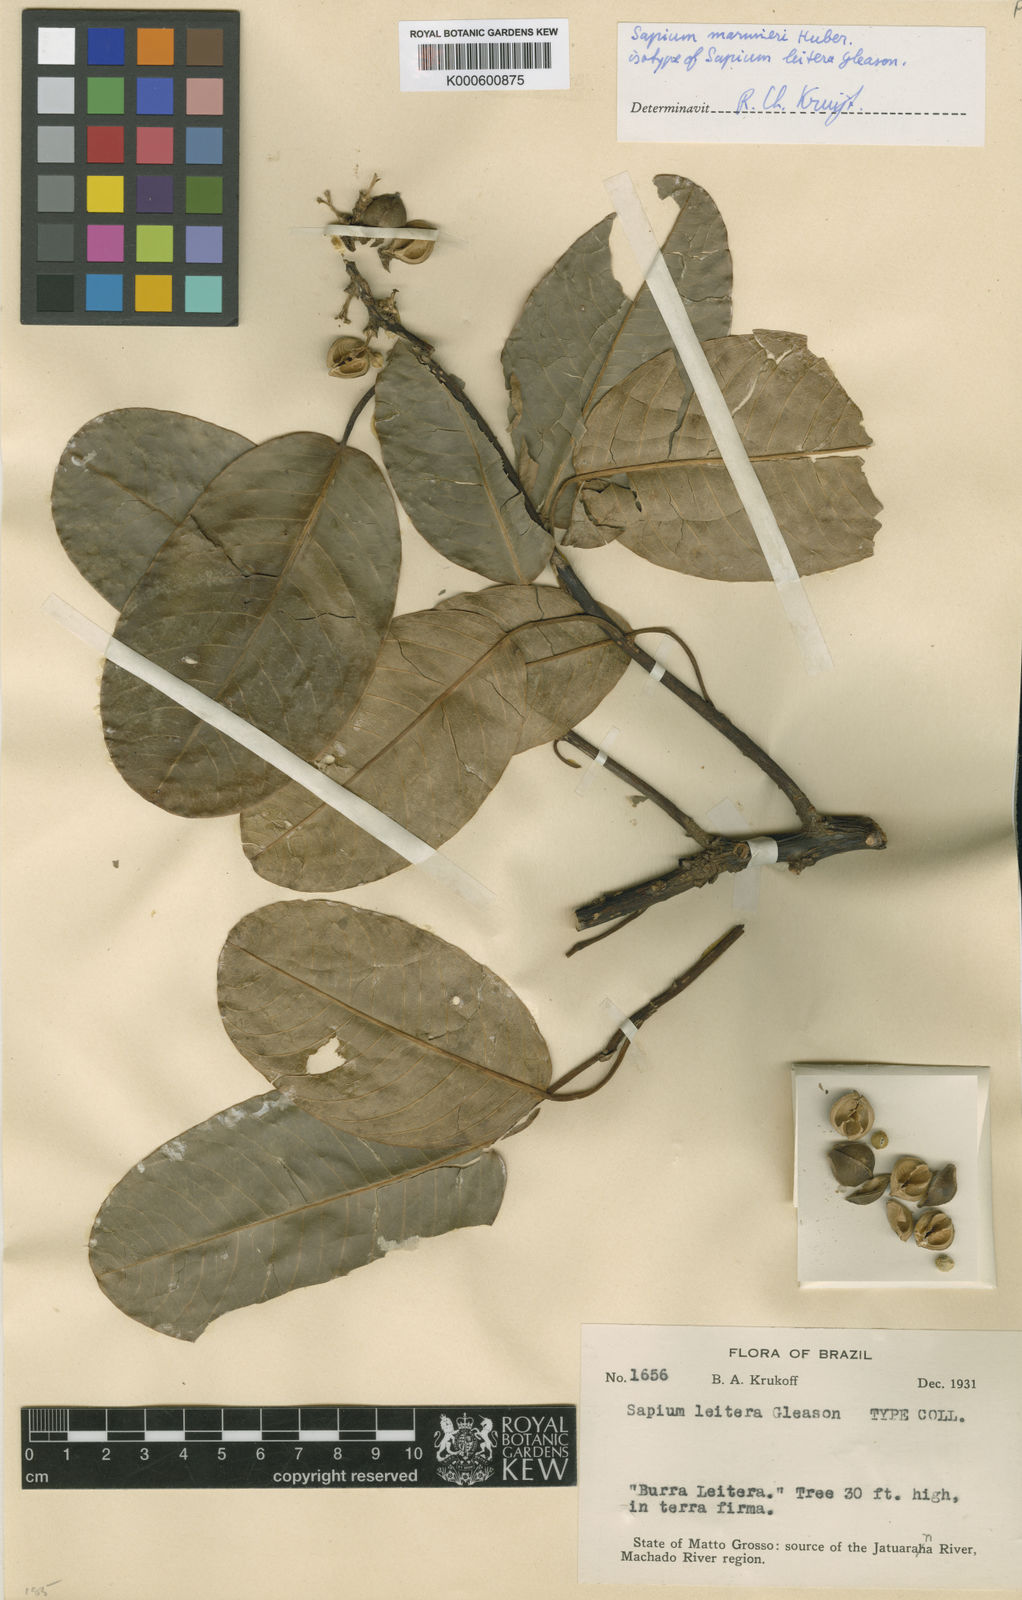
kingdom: Plantae
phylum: Tracheophyta
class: Magnoliopsida
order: Malpighiales
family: Euphorbiaceae
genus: Sapium
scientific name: Sapium marmieri
